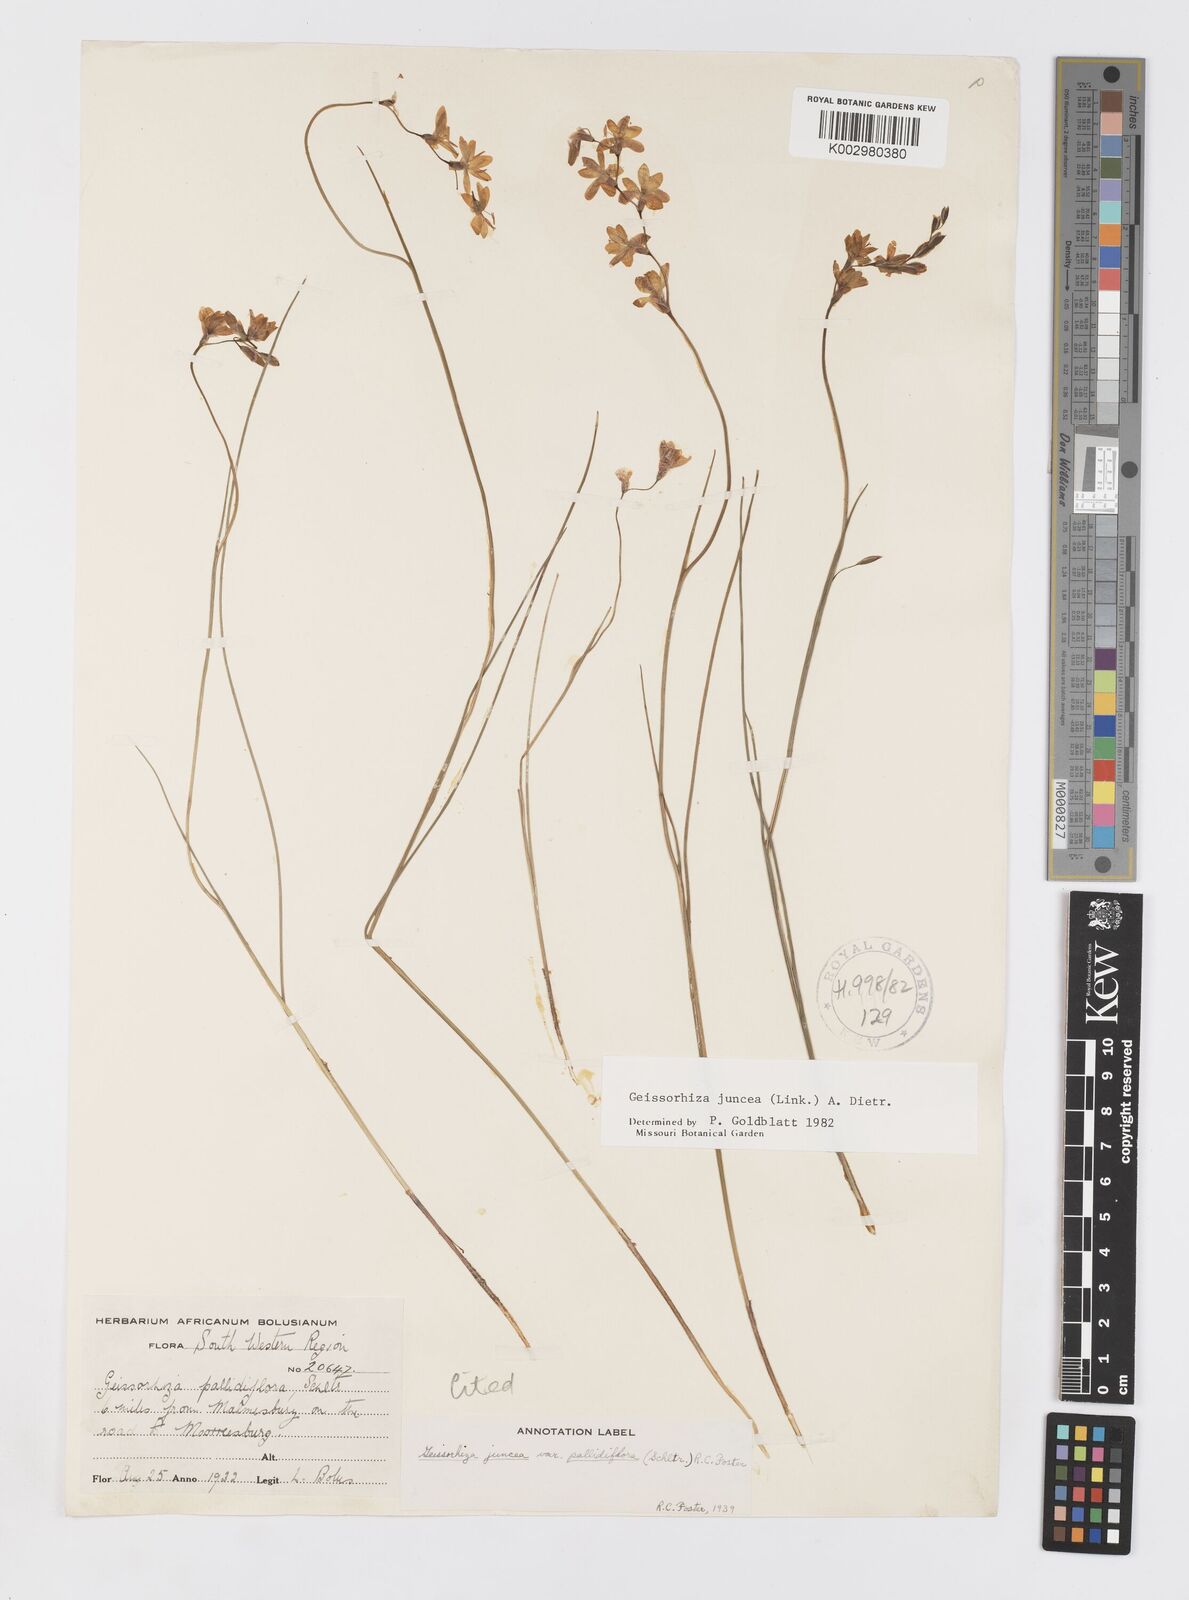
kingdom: Plantae
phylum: Tracheophyta
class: Liliopsida
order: Asparagales
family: Iridaceae
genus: Geissorhiza
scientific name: Geissorhiza juncea
